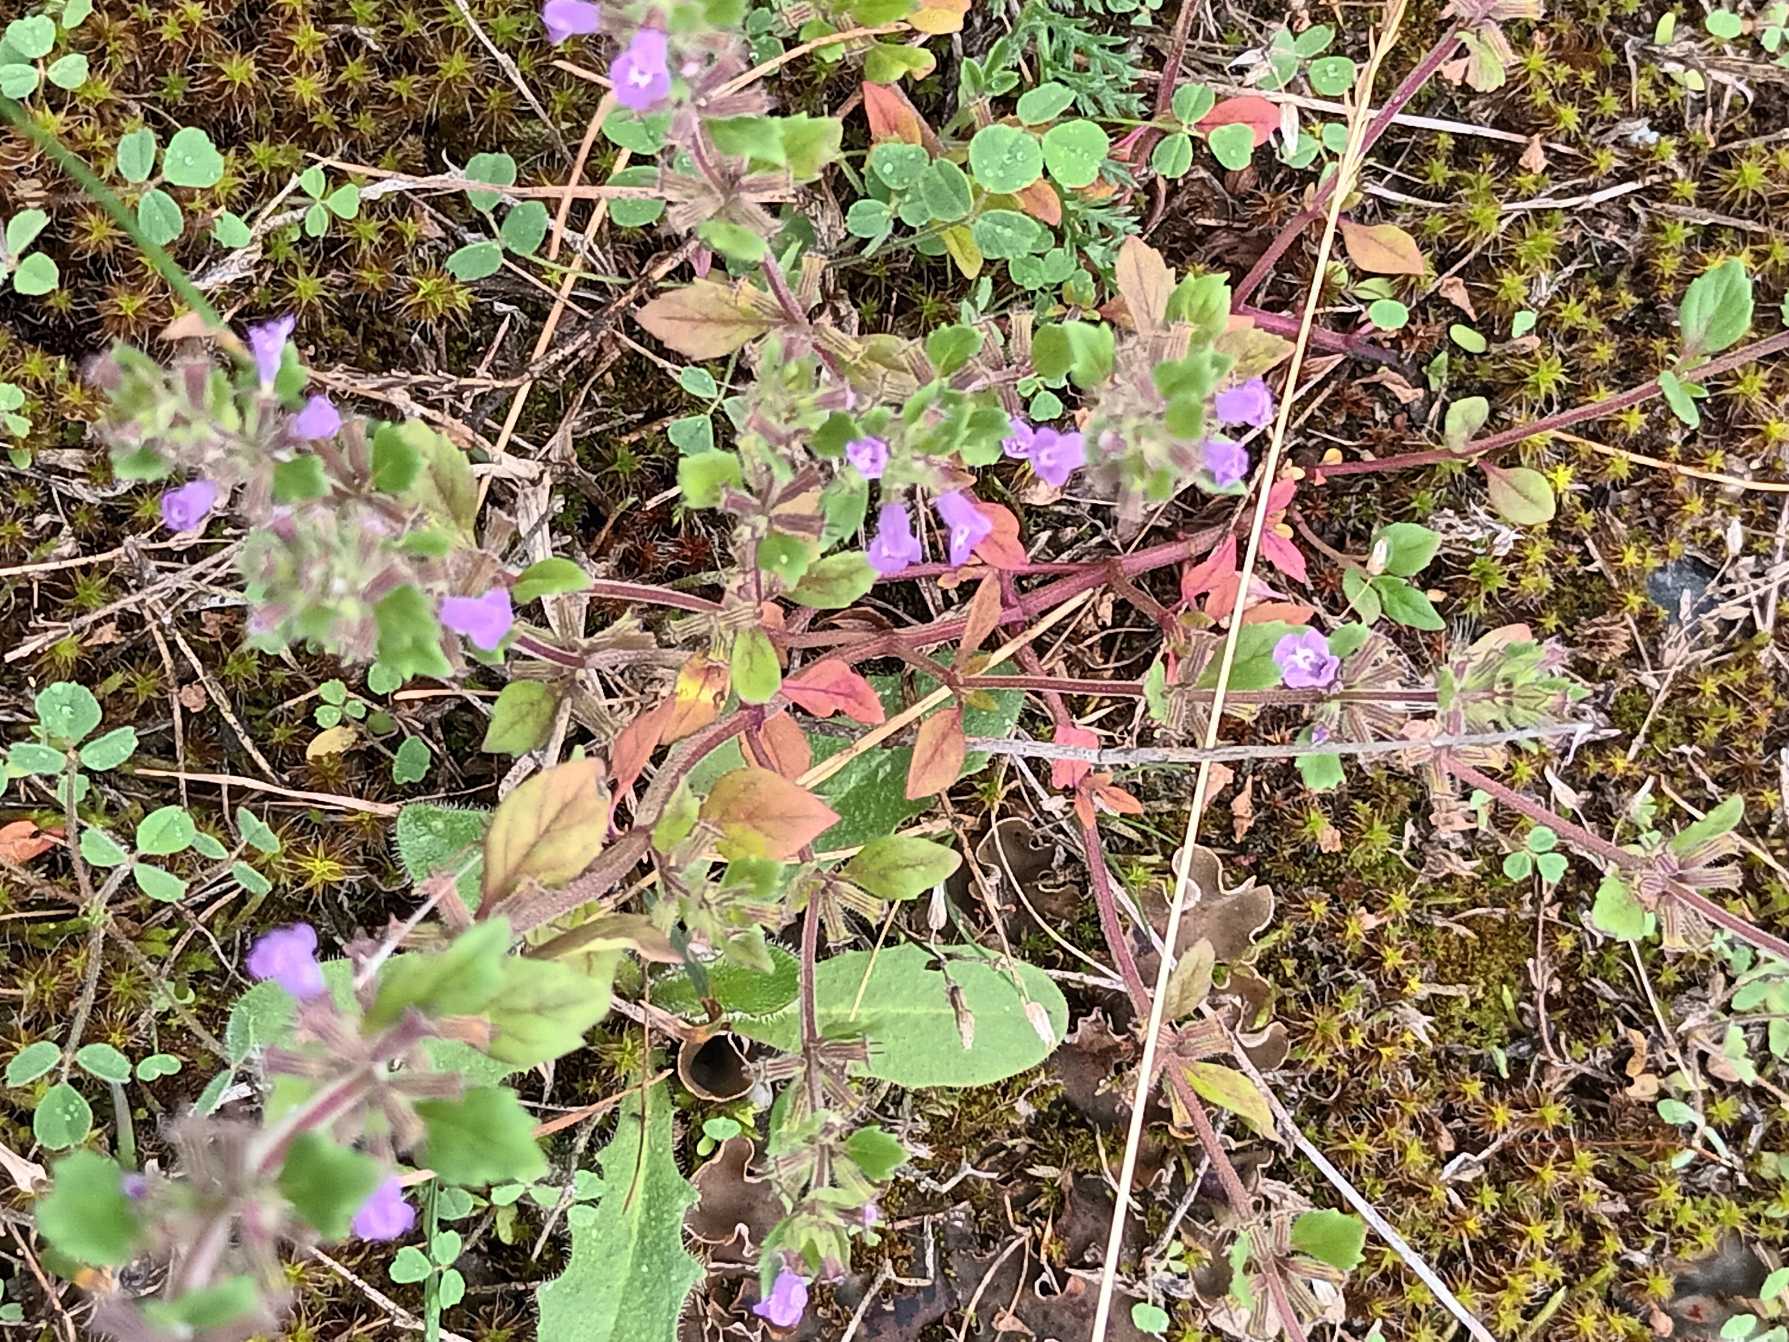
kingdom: Plantae
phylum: Tracheophyta
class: Magnoliopsida
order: Lamiales
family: Lamiaceae
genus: Clinopodium
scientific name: Clinopodium acinos
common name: Voldtimian
